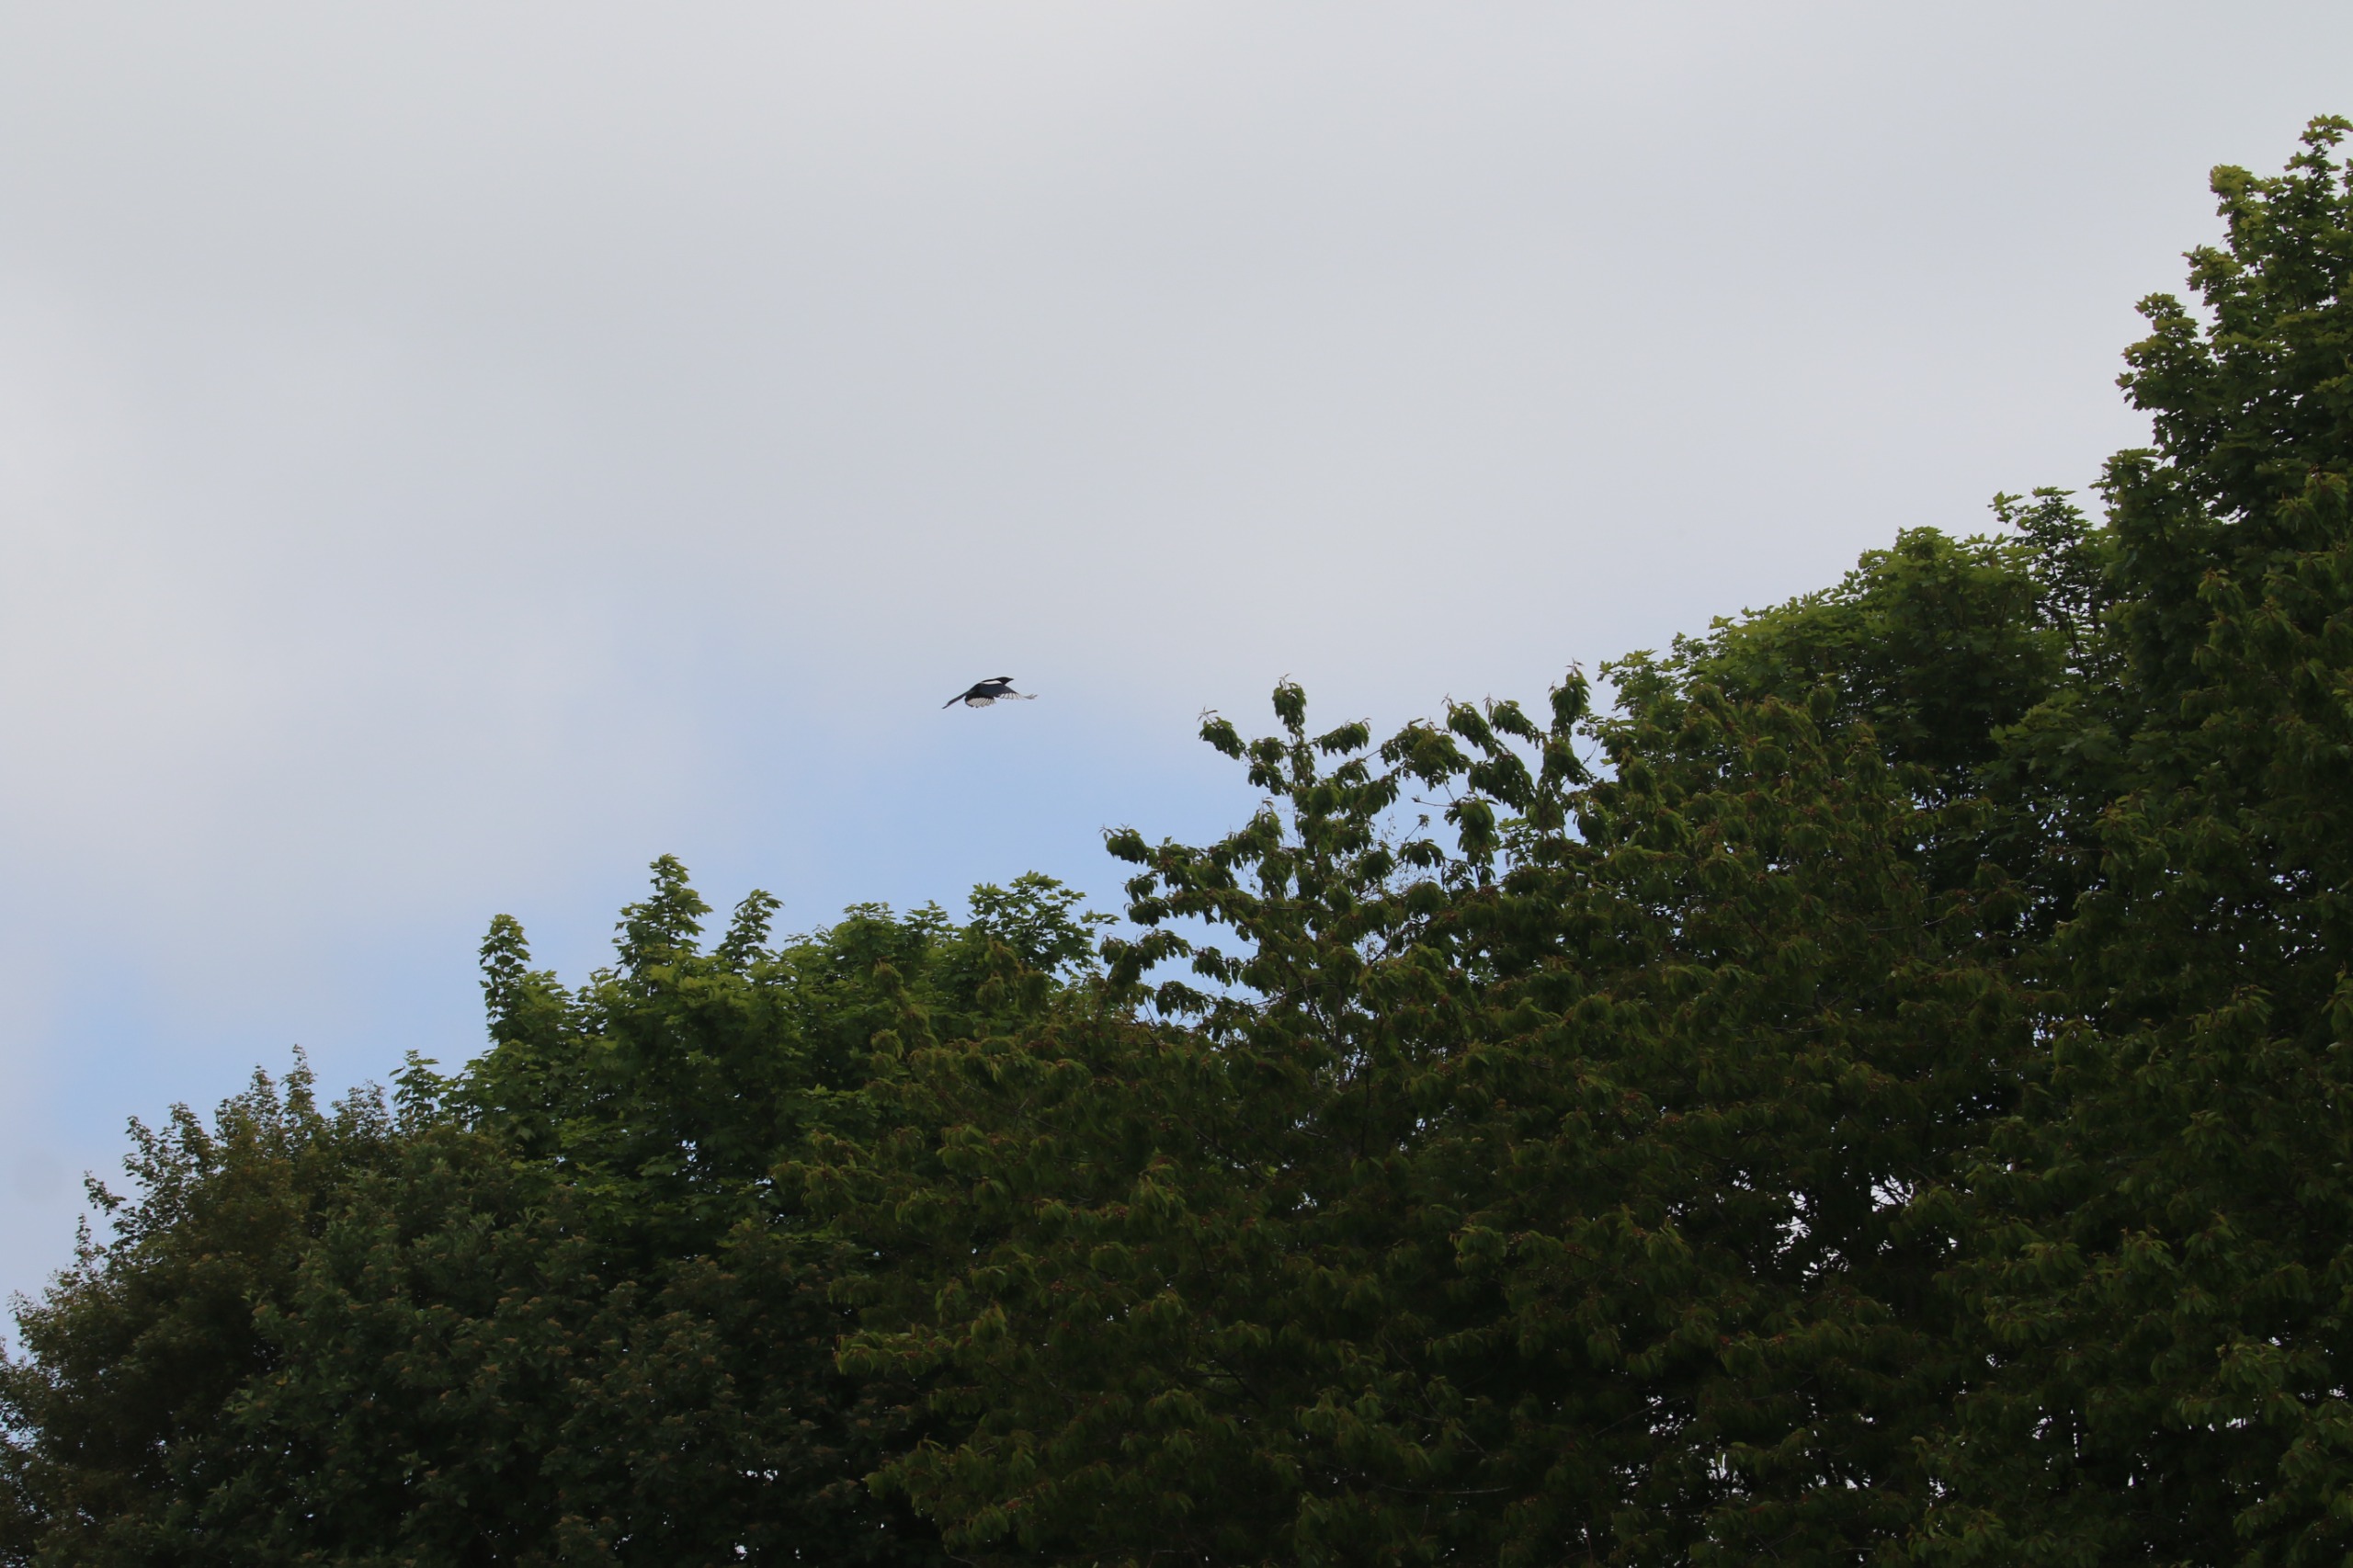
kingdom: Animalia
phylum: Chordata
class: Aves
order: Passeriformes
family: Corvidae
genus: Pica
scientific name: Pica pica
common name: Husskade
